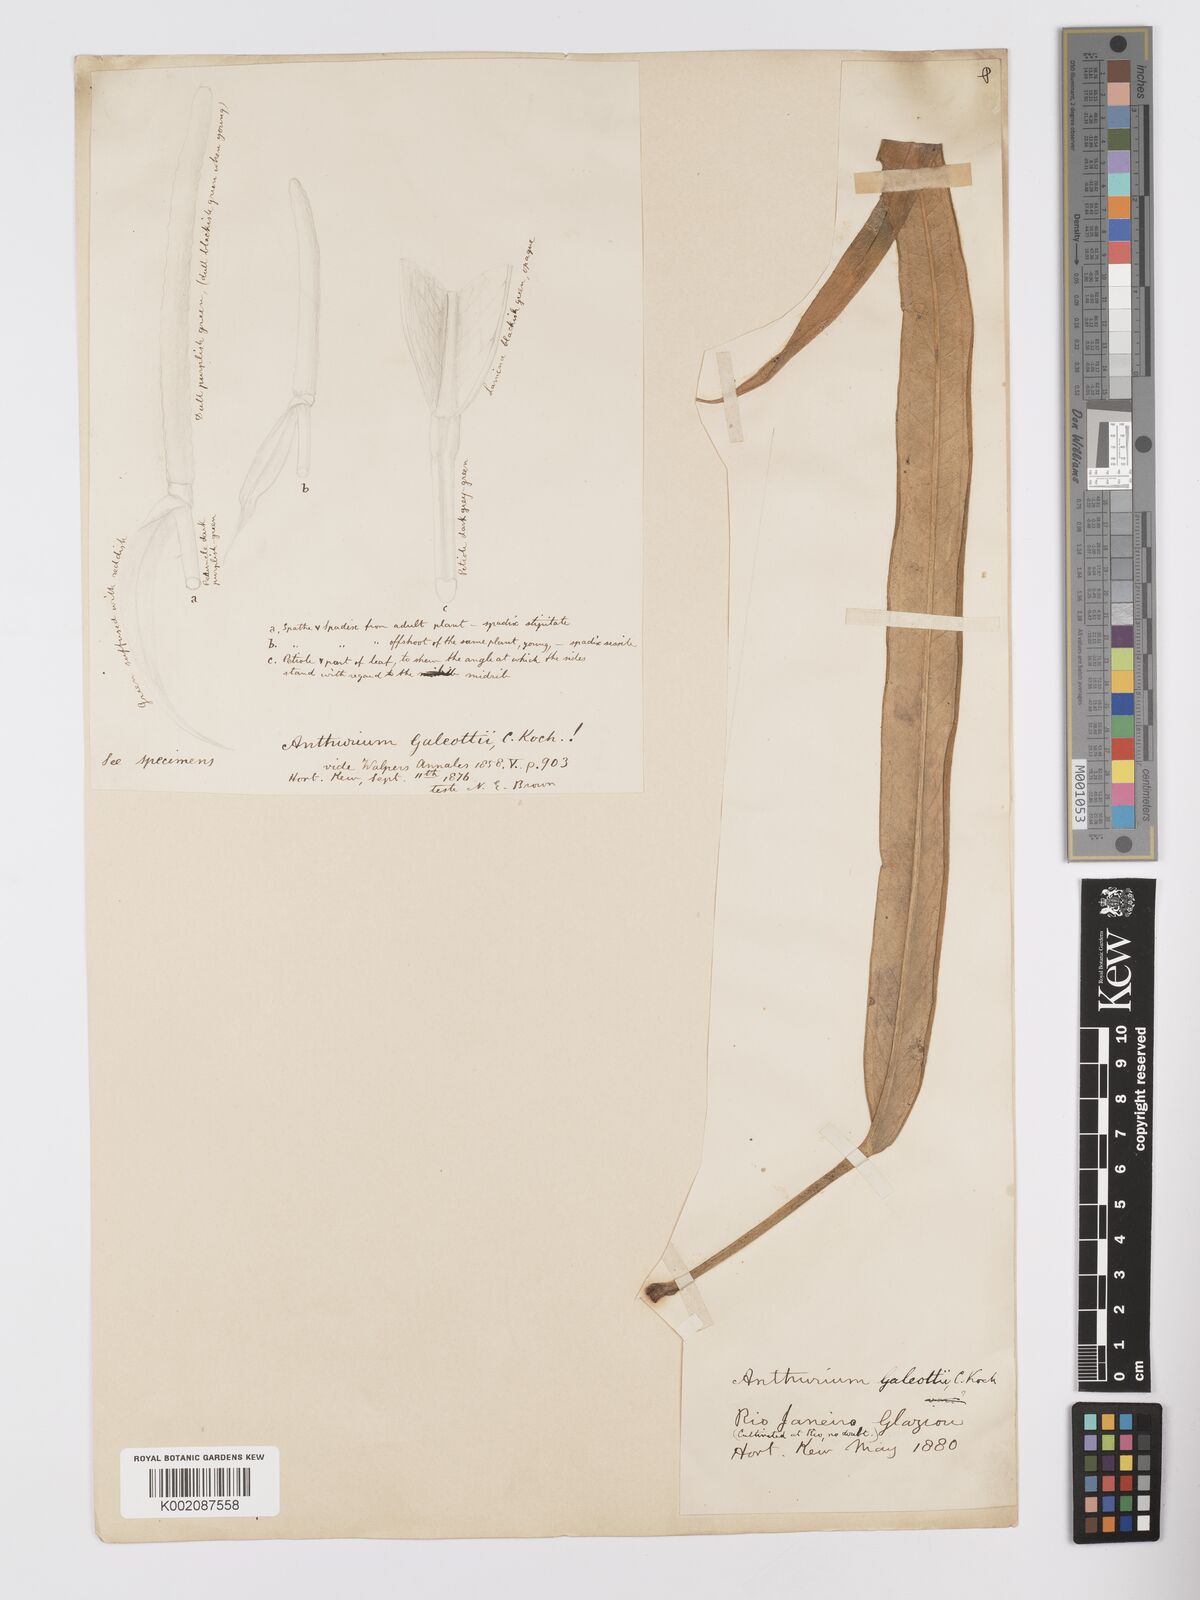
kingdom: Plantae
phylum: Tracheophyta
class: Liliopsida
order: Alismatales
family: Araceae
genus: Anthurium
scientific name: Anthurium galeottii
